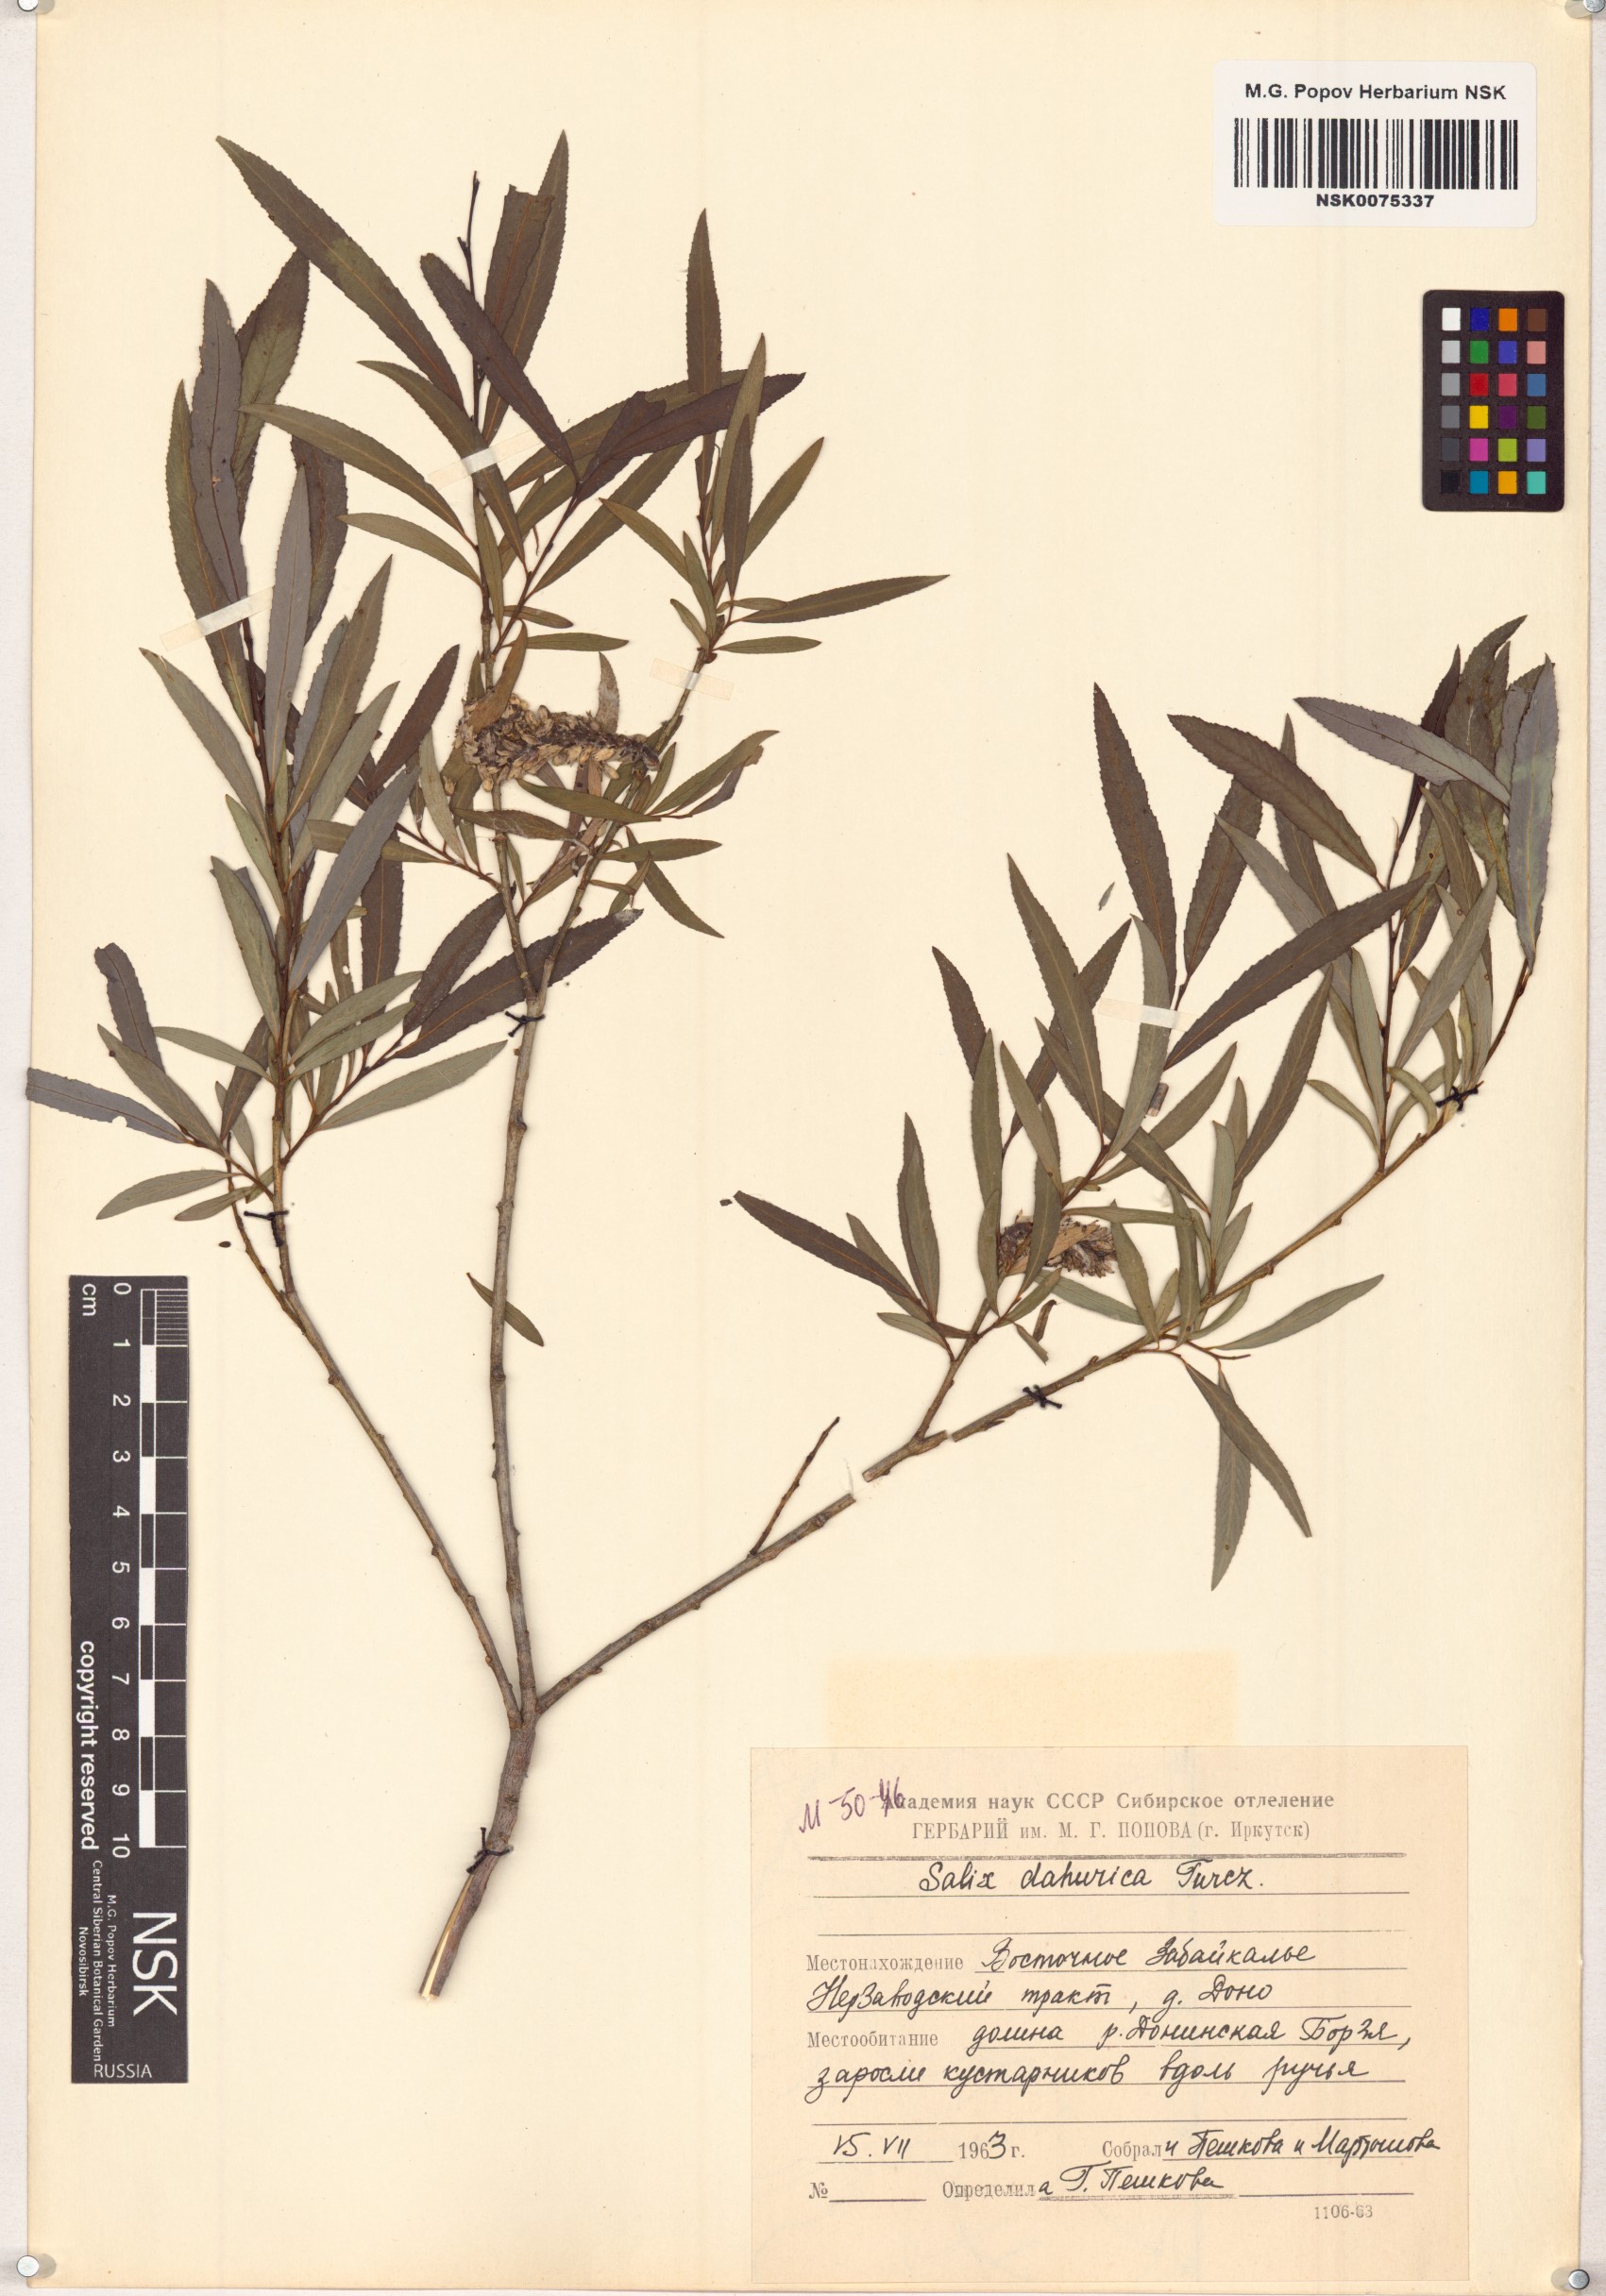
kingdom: Plantae
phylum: Tracheophyta
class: Magnoliopsida
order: Malpighiales
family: Salicaceae
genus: Salix
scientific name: Salix
